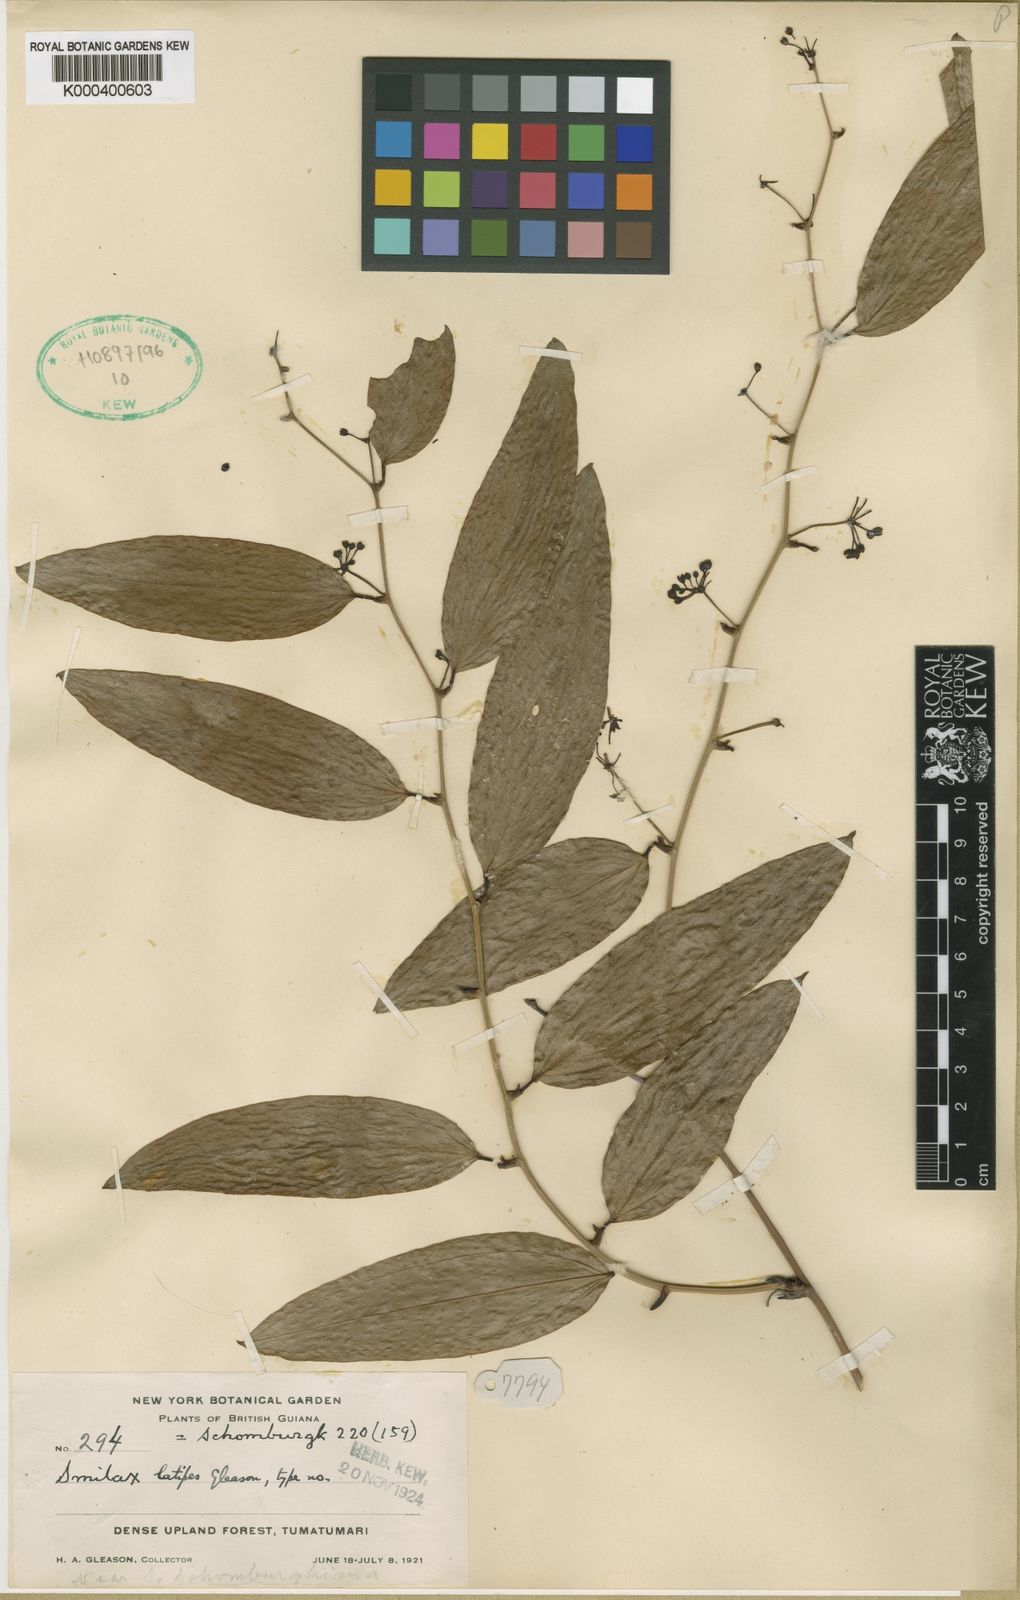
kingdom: Plantae
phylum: Tracheophyta
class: Liliopsida
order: Liliales
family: Smilacaceae
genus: Smilax
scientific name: Smilax schomburgkiana
